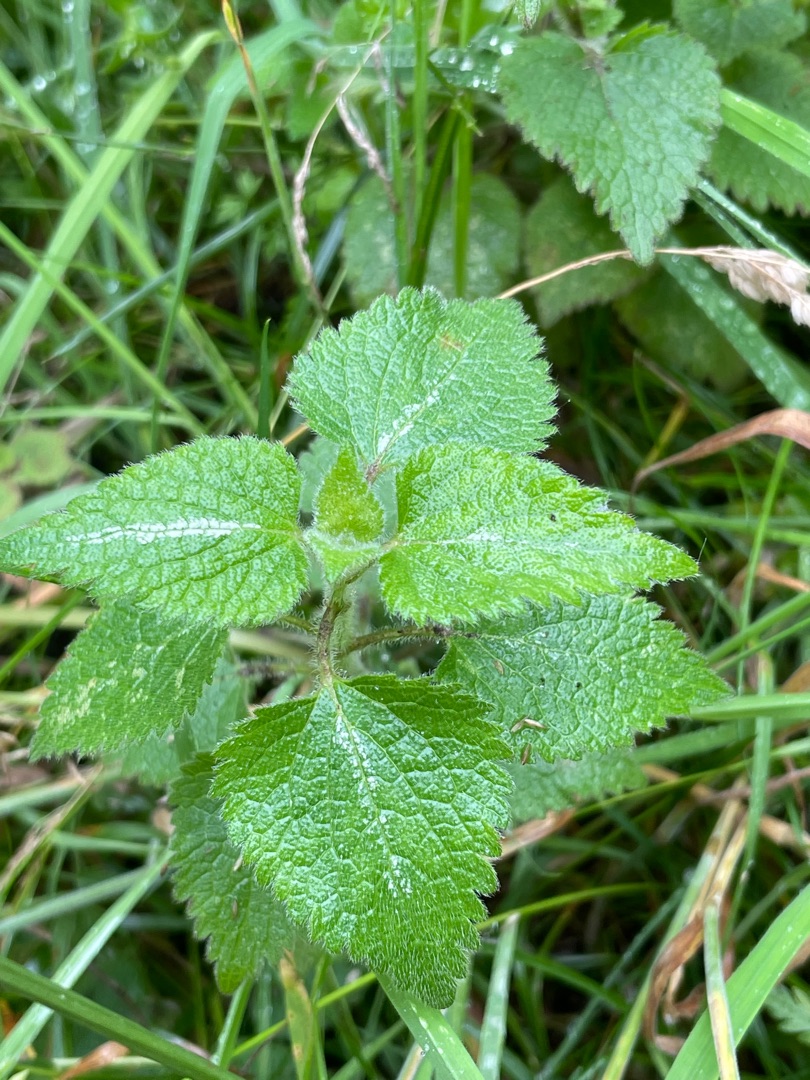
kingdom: Plantae
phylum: Tracheophyta
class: Magnoliopsida
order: Lamiales
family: Lamiaceae
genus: Lamium
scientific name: Lamium maculatum
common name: Plettet tvetand
